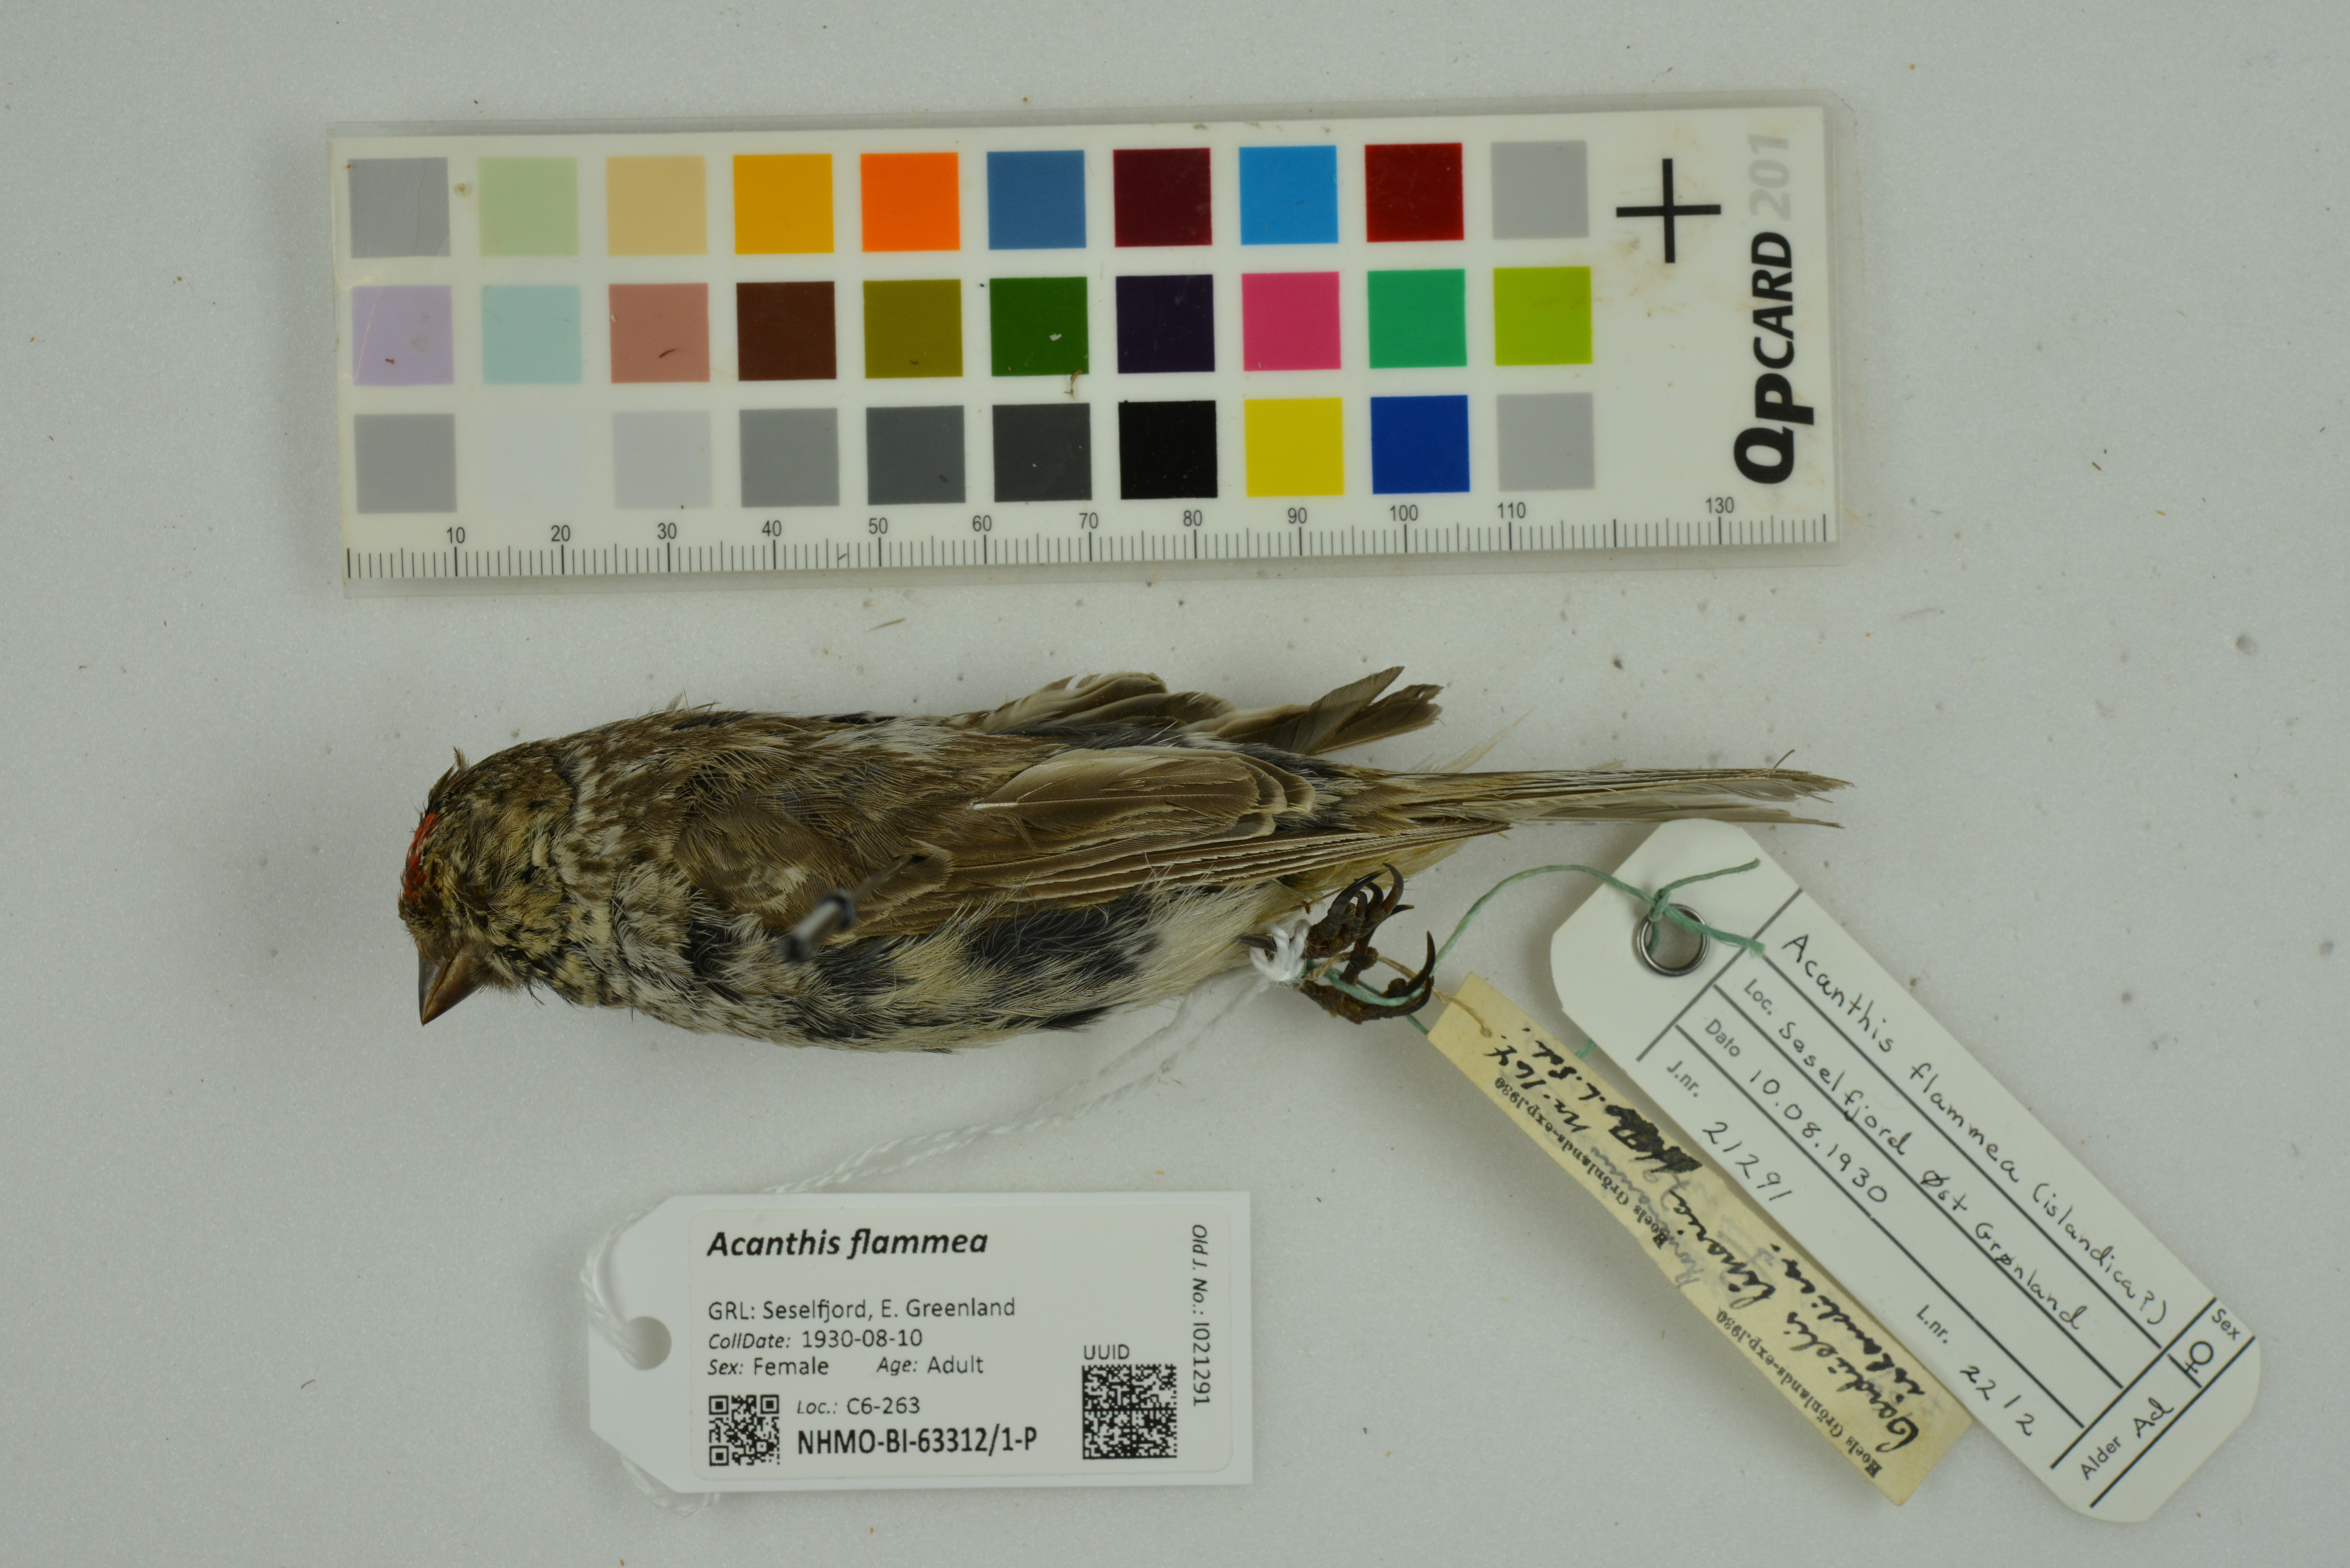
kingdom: Animalia
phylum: Chordata
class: Aves
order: Passeriformes
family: Fringillidae
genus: Acanthis
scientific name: Acanthis flammea
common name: Common redpoll
